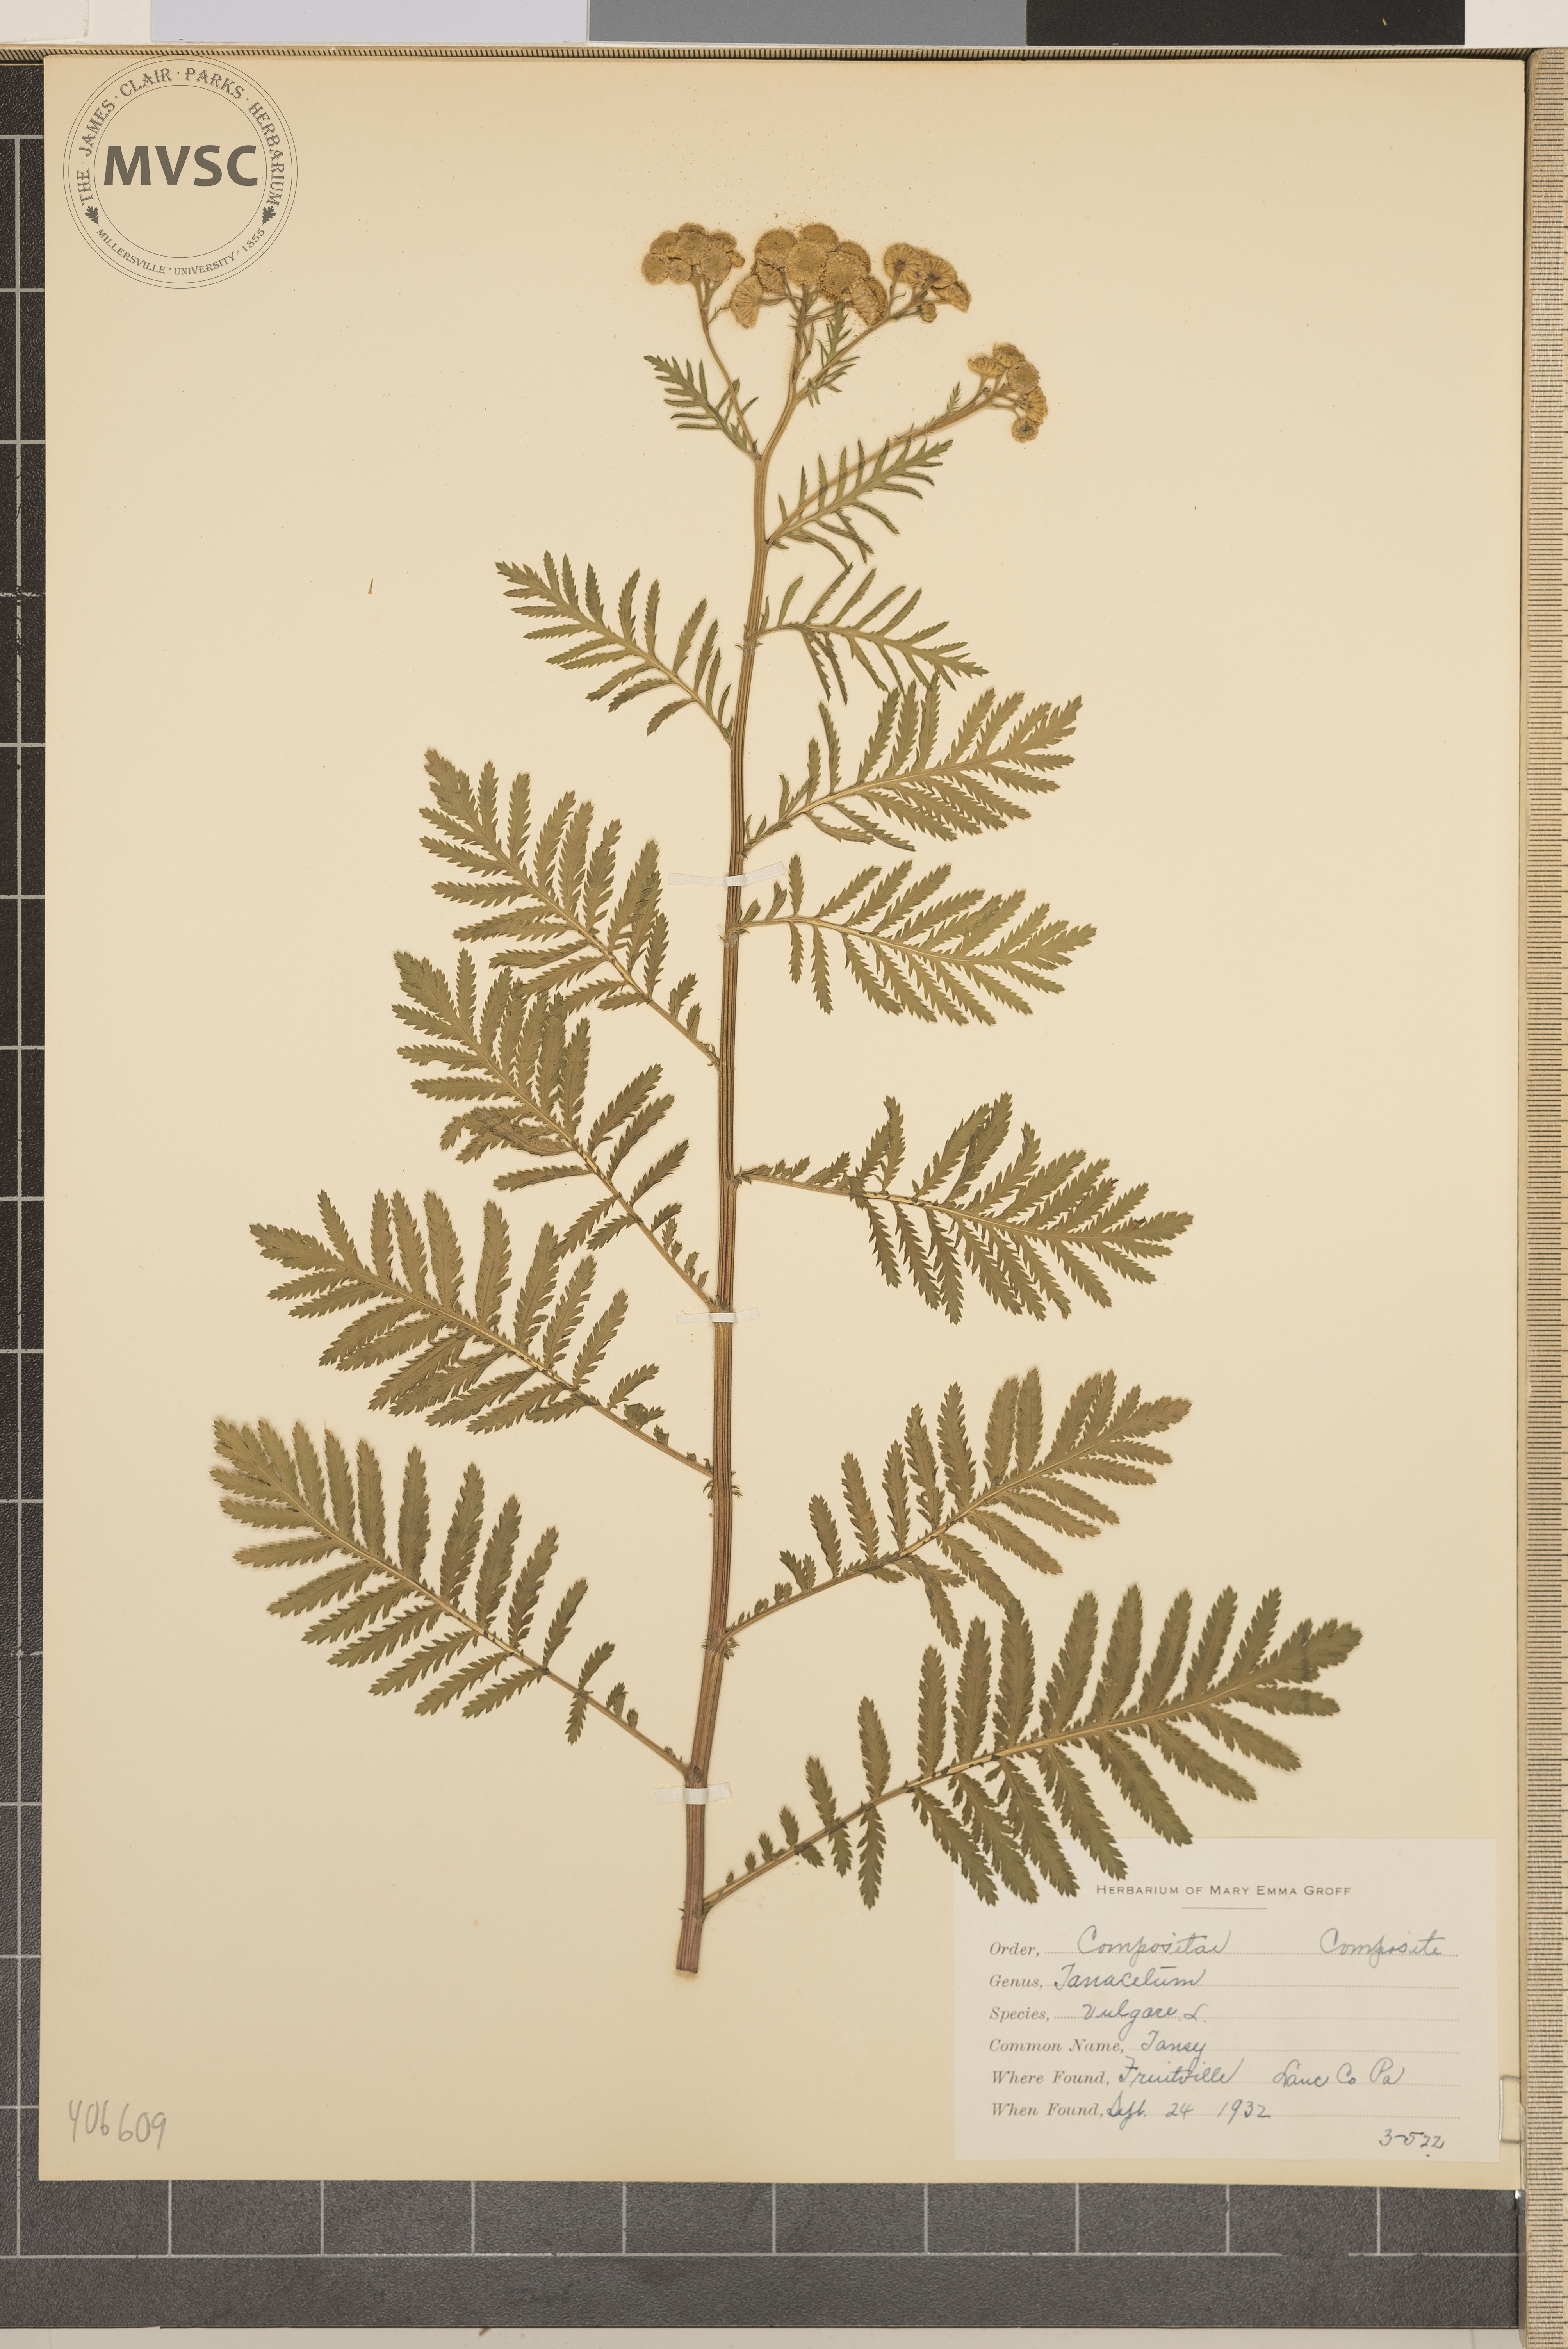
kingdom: Plantae
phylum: Tracheophyta
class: Magnoliopsida
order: Asterales
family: Asteraceae
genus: Tanacetum
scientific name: Tanacetum vulgare
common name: Tansy
